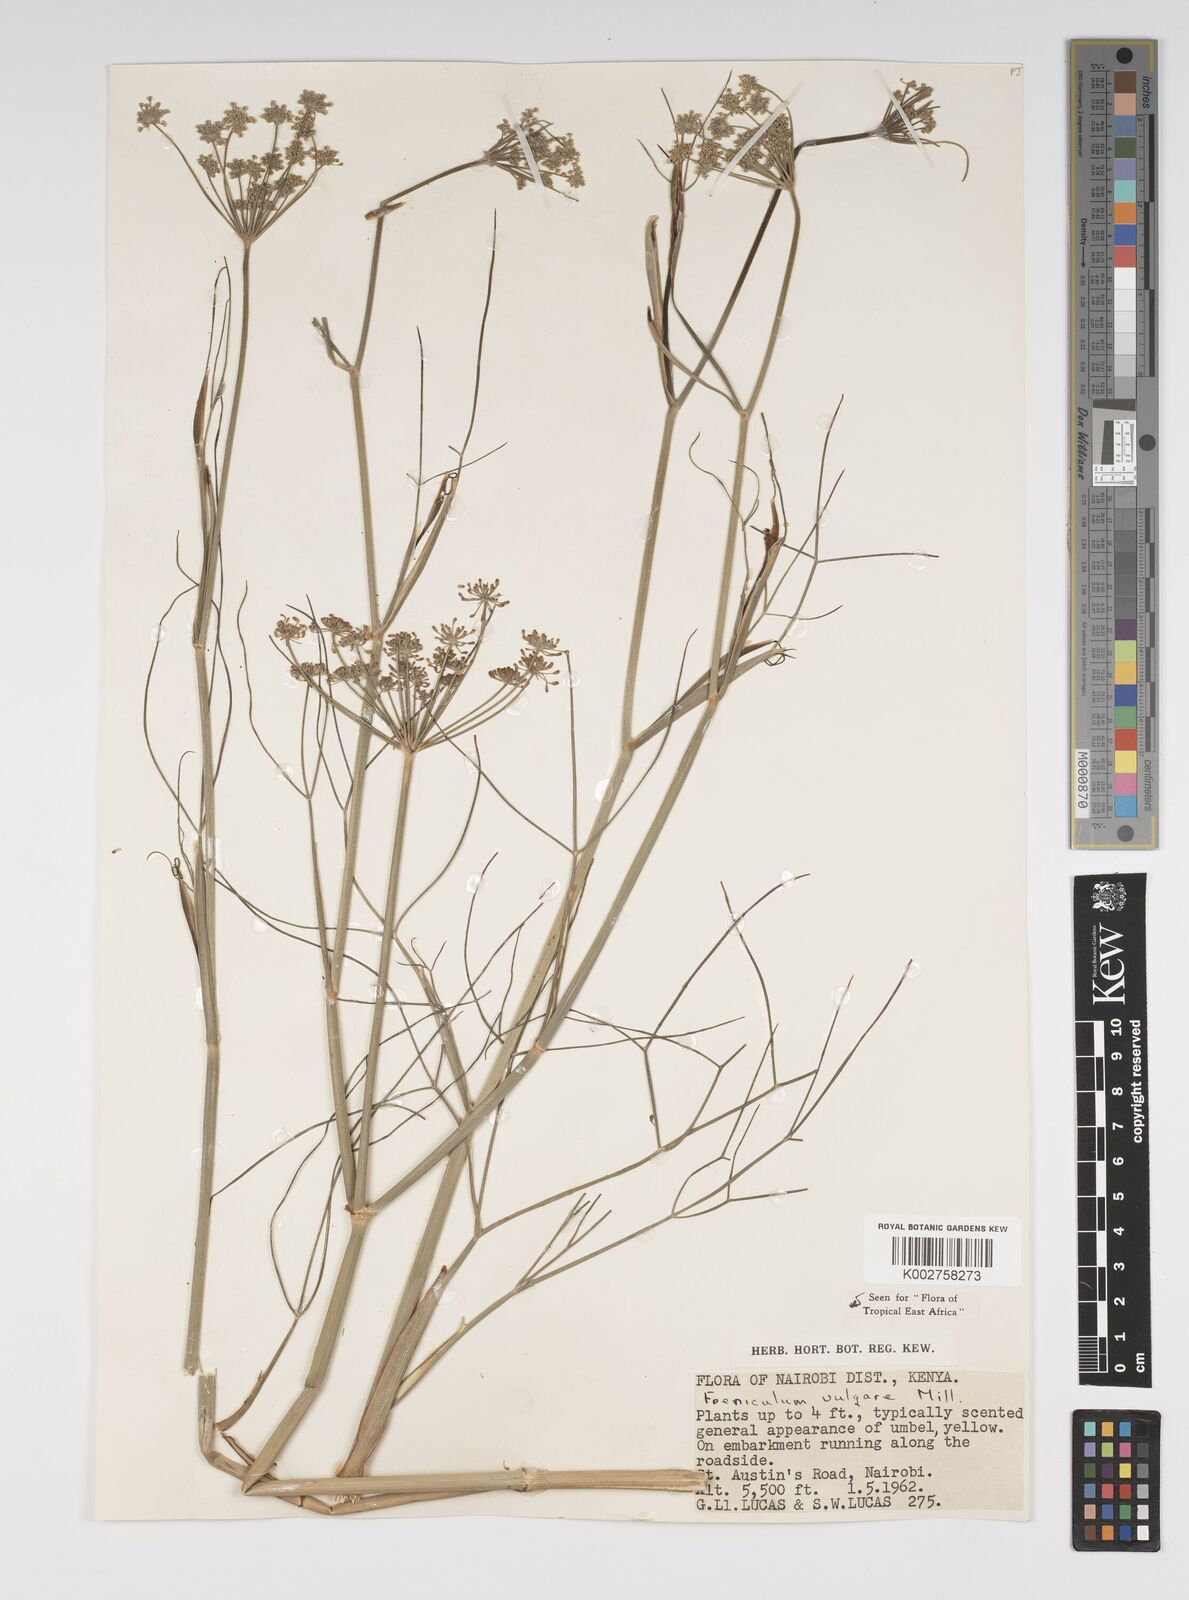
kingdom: Plantae
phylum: Tracheophyta
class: Magnoliopsida
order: Apiales
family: Apiaceae
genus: Foeniculum
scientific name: Foeniculum vulgare
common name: Fennel
